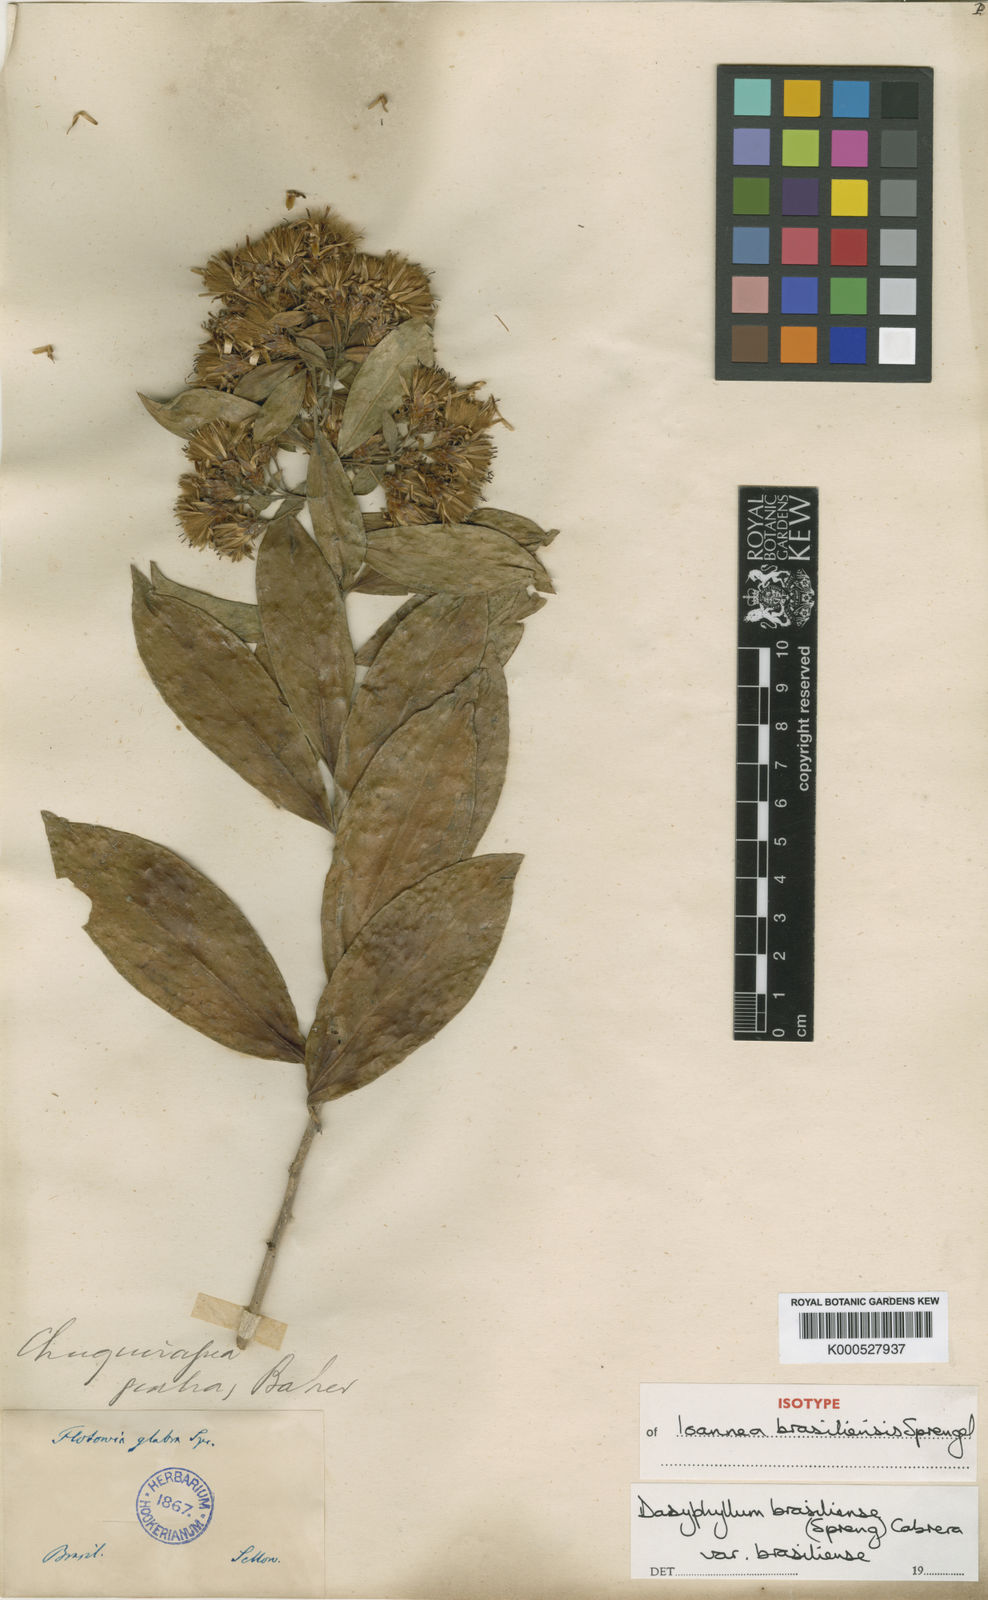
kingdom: Plantae
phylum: Tracheophyta
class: Magnoliopsida
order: Asterales
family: Asteraceae
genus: Dasyphyllum
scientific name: Dasyphyllum brasiliense
